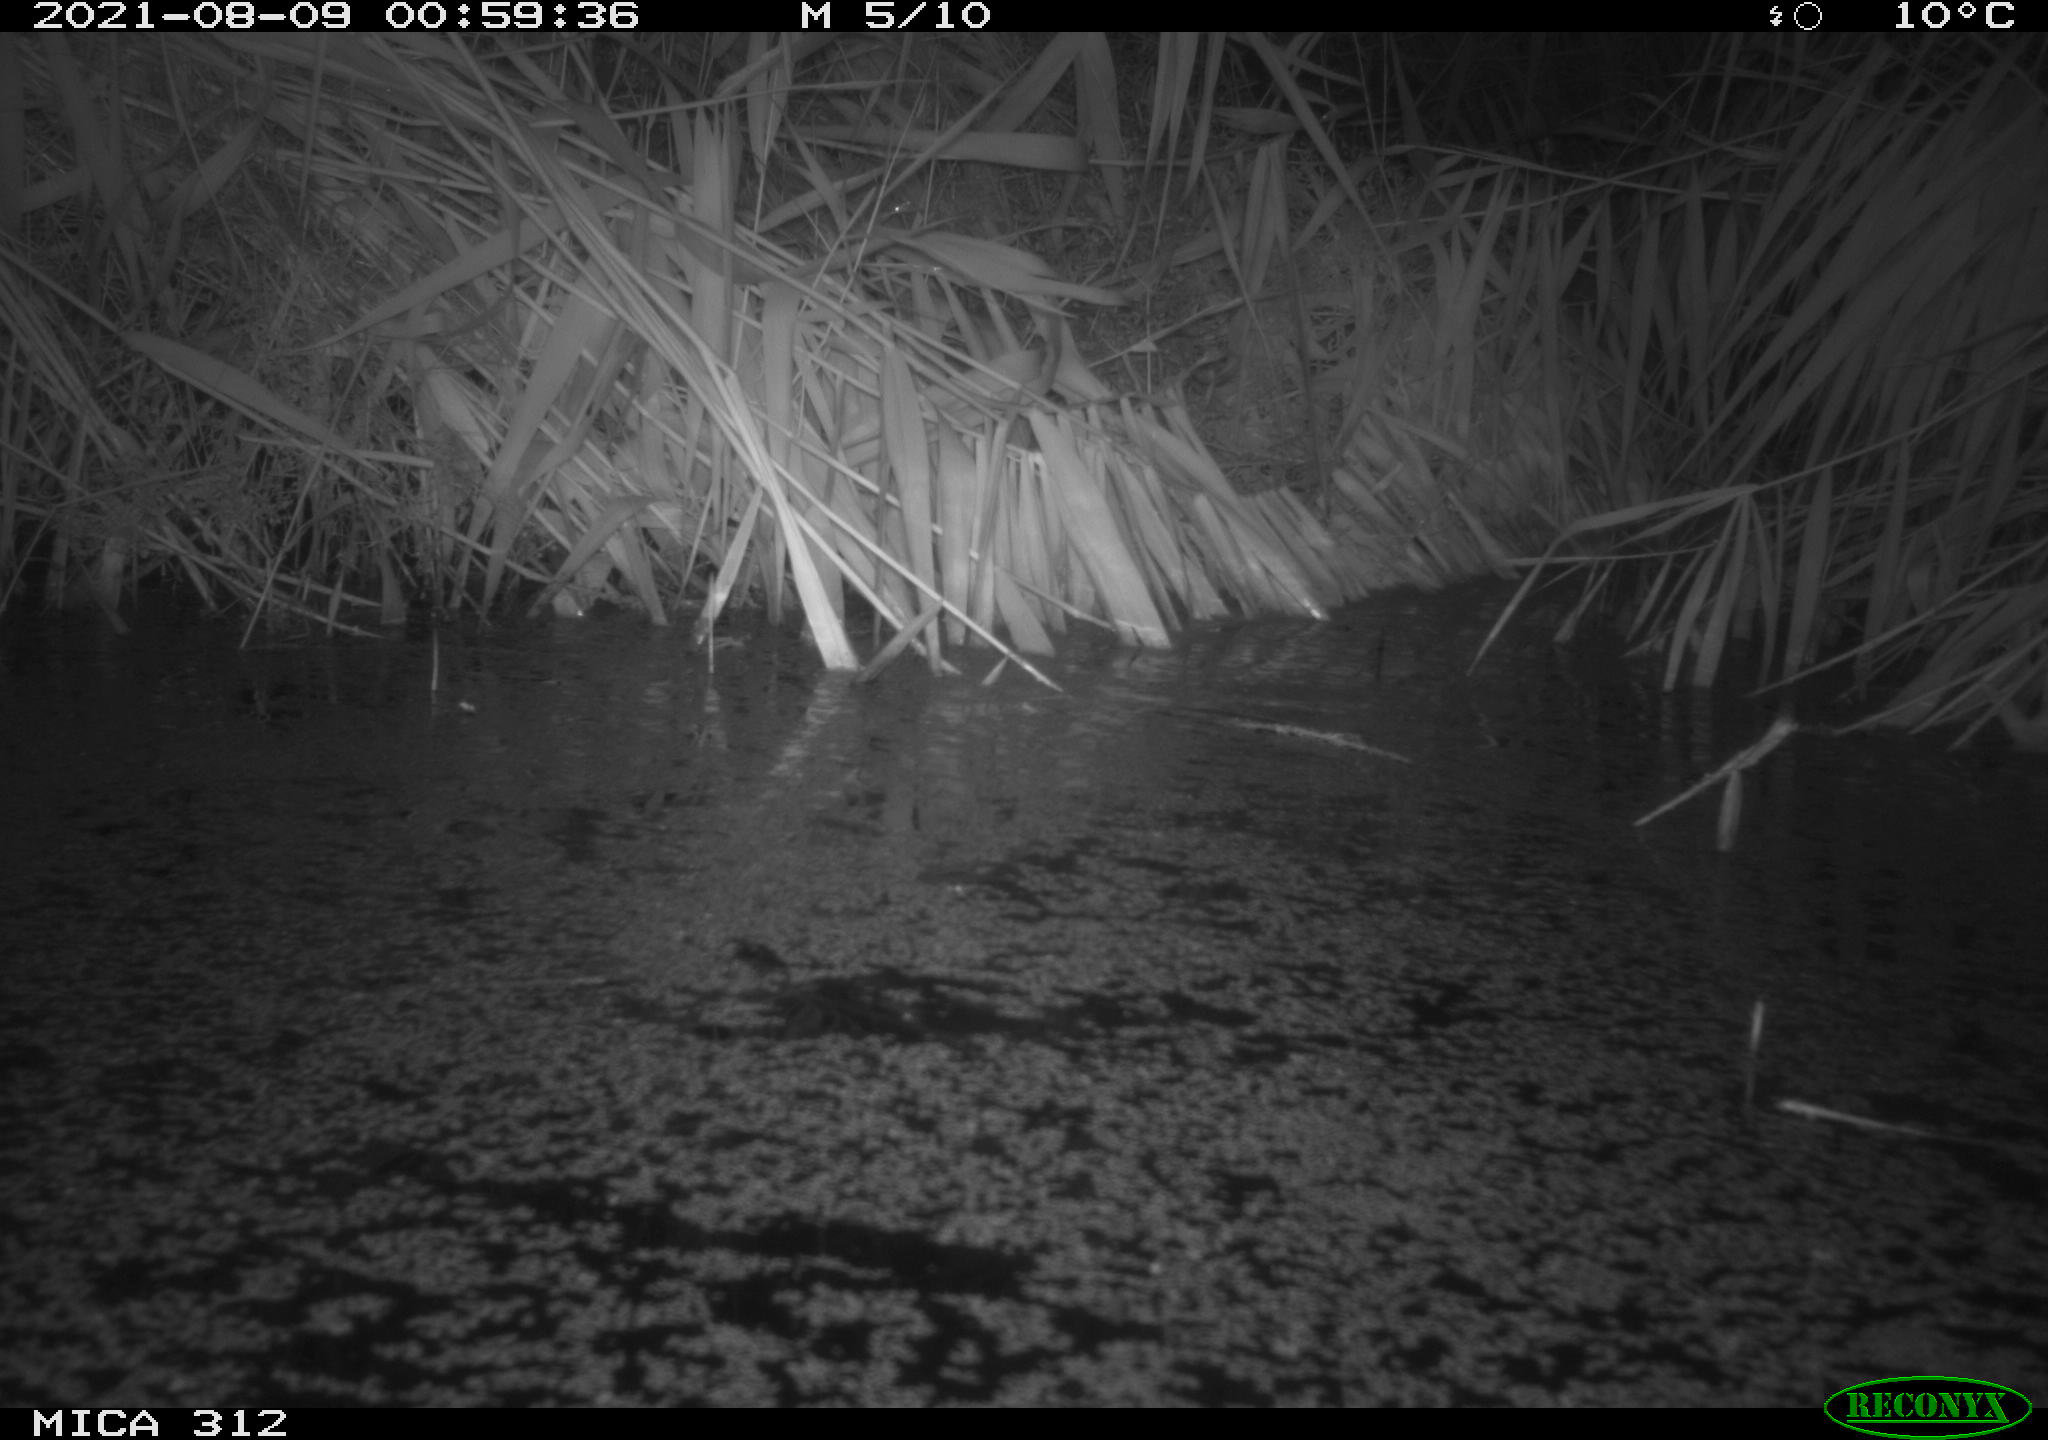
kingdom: Animalia
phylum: Chordata
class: Mammalia
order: Rodentia
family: Muridae
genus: Rattus
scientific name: Rattus norvegicus
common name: Brown rat
